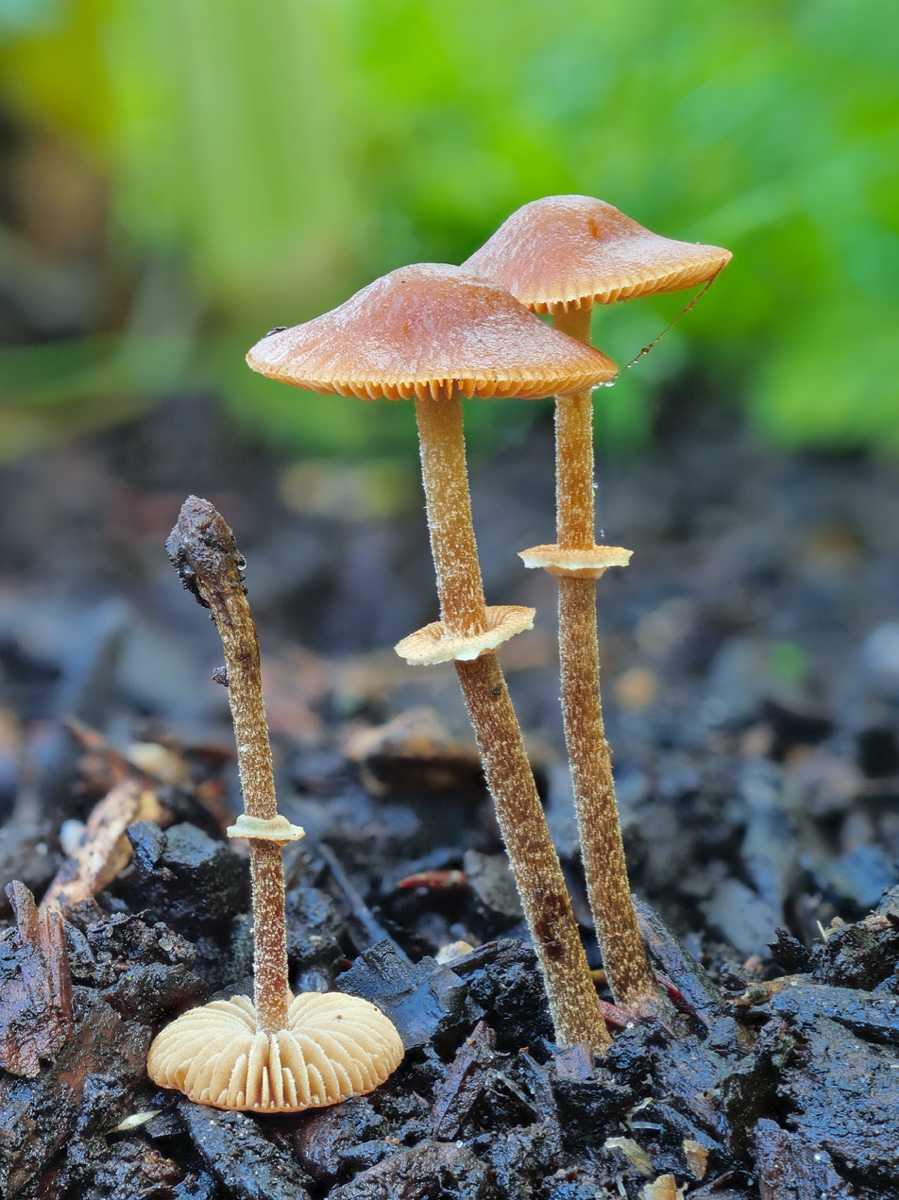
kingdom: Fungi
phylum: Basidiomycota
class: Agaricomycetes
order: Agaricales
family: Bolbitiaceae
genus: Conocybe
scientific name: Conocybe rugosa
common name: giftig dansehat
